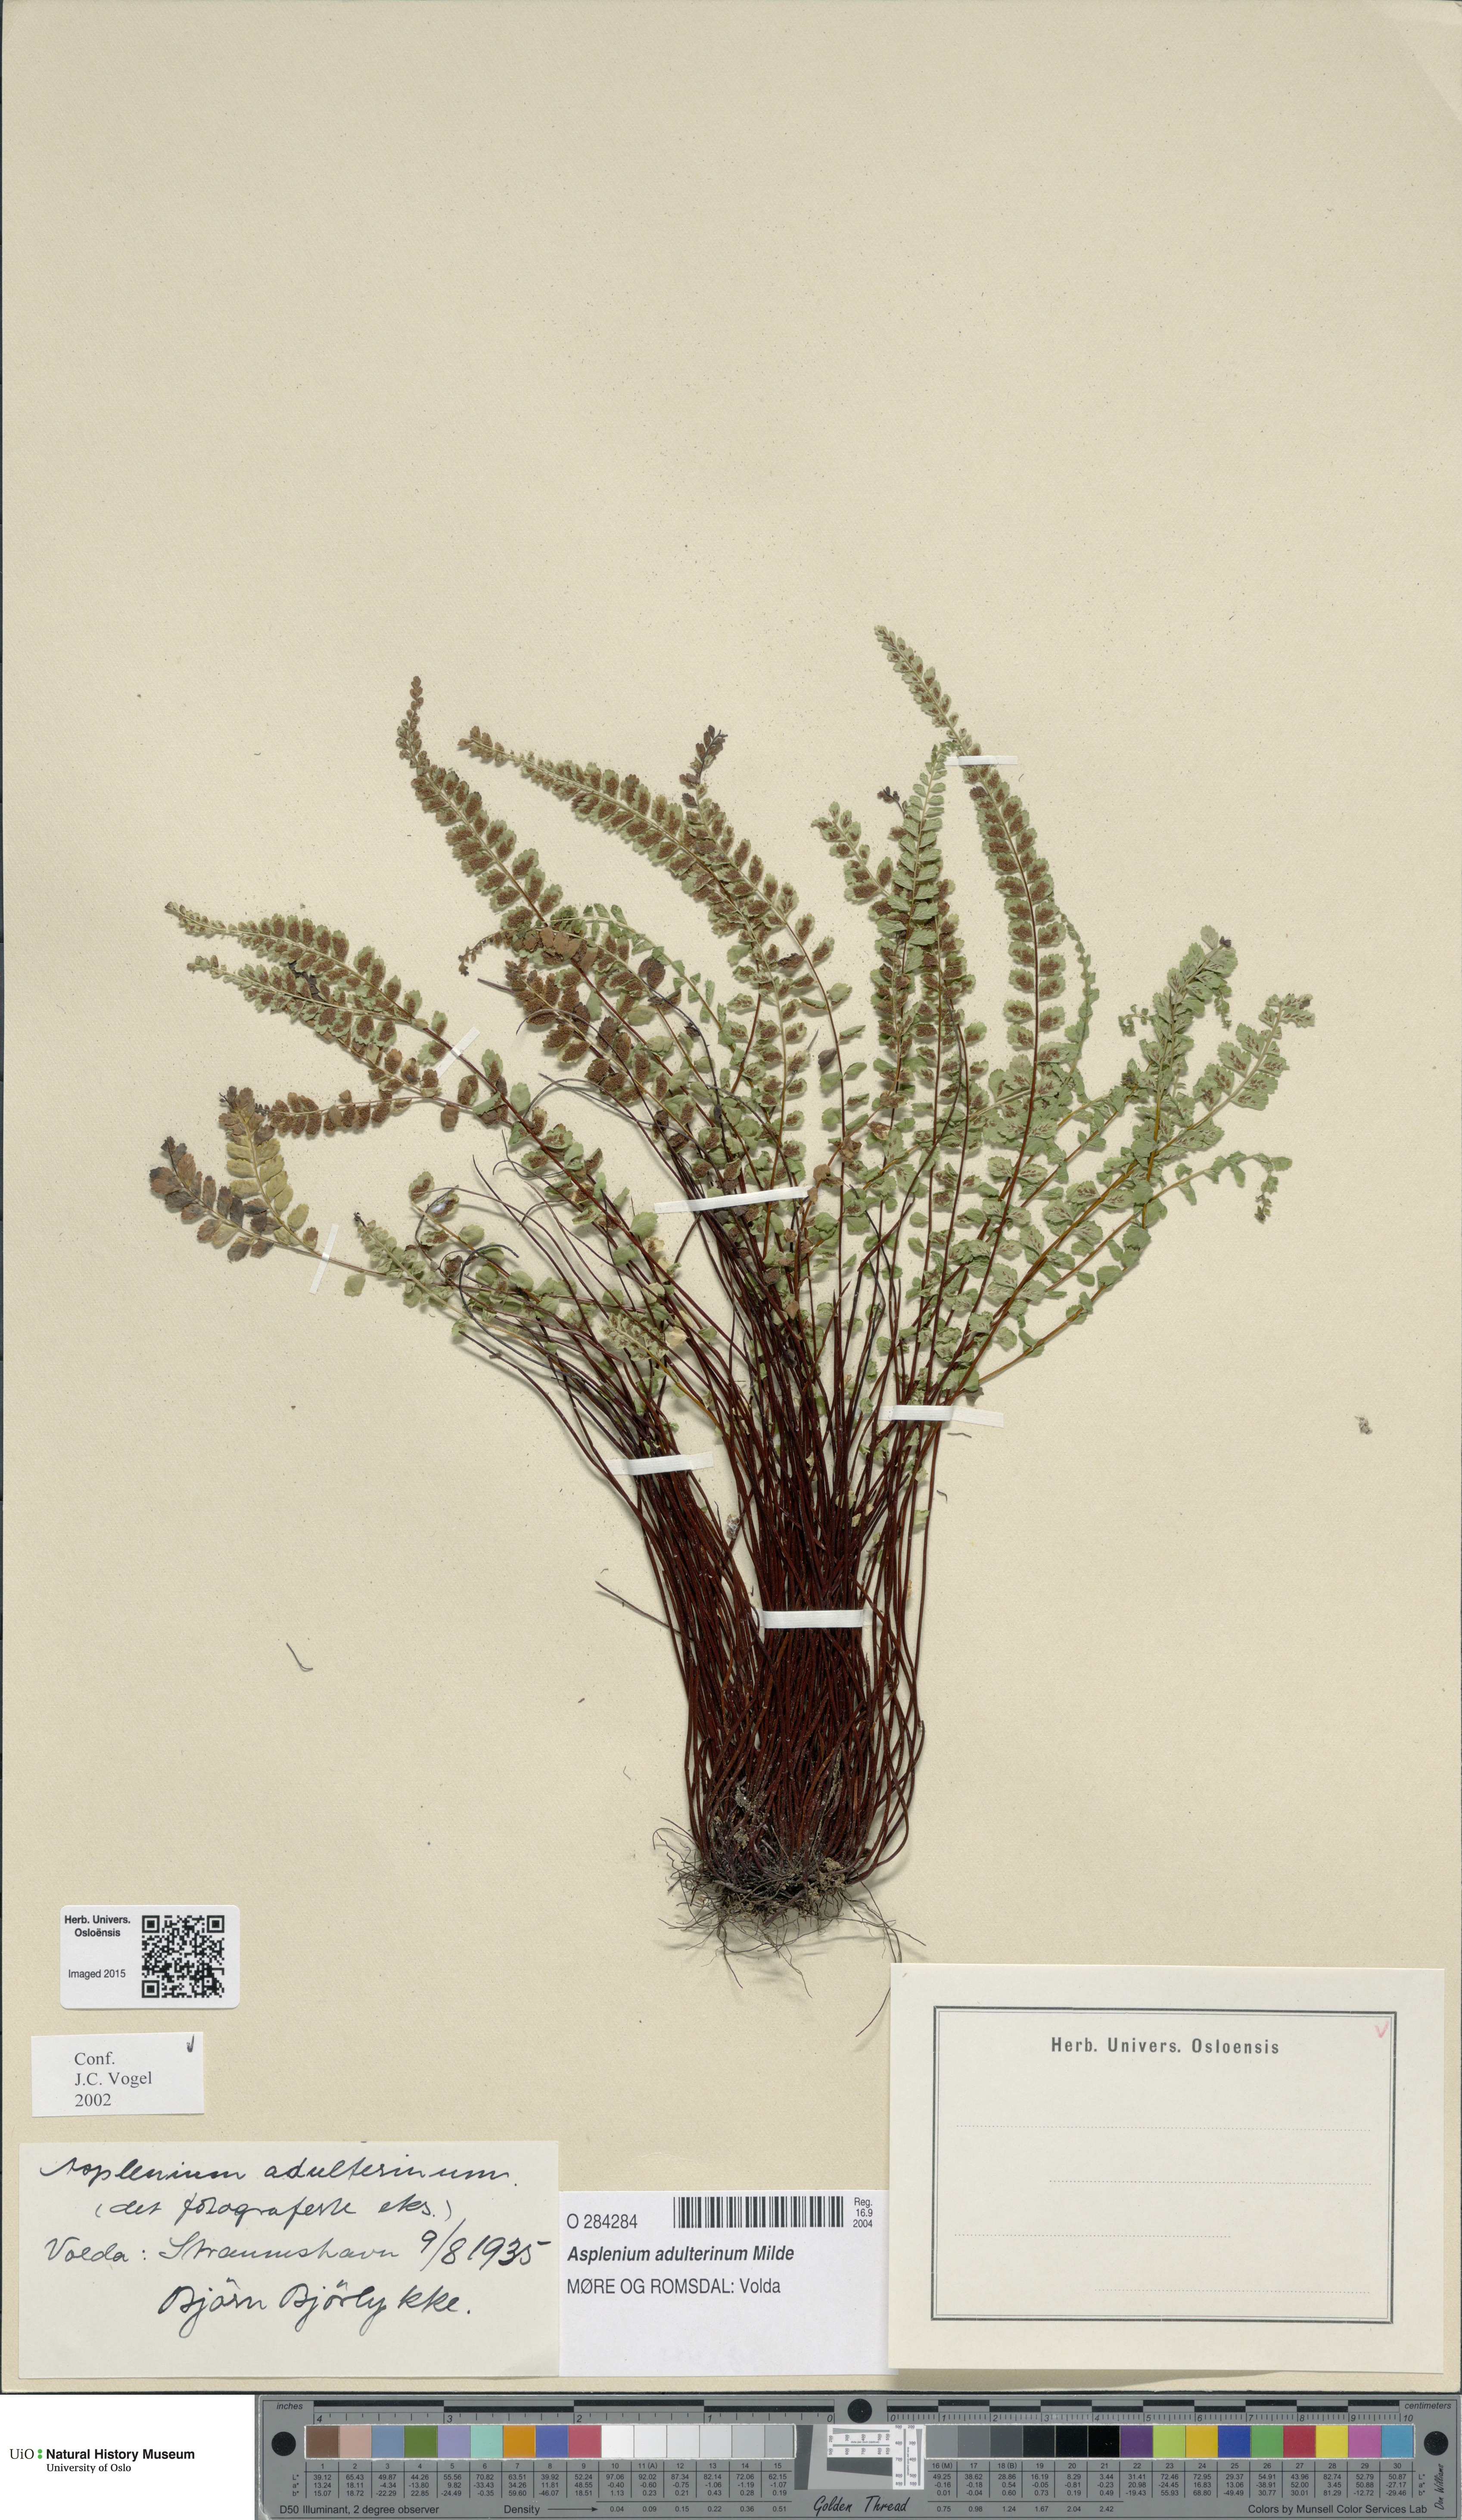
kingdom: Plantae
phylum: Tracheophyta
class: Polypodiopsida
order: Polypodiales
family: Aspleniaceae
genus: Asplenium
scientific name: Asplenium adulterinum
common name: Adulterated spleenwort
